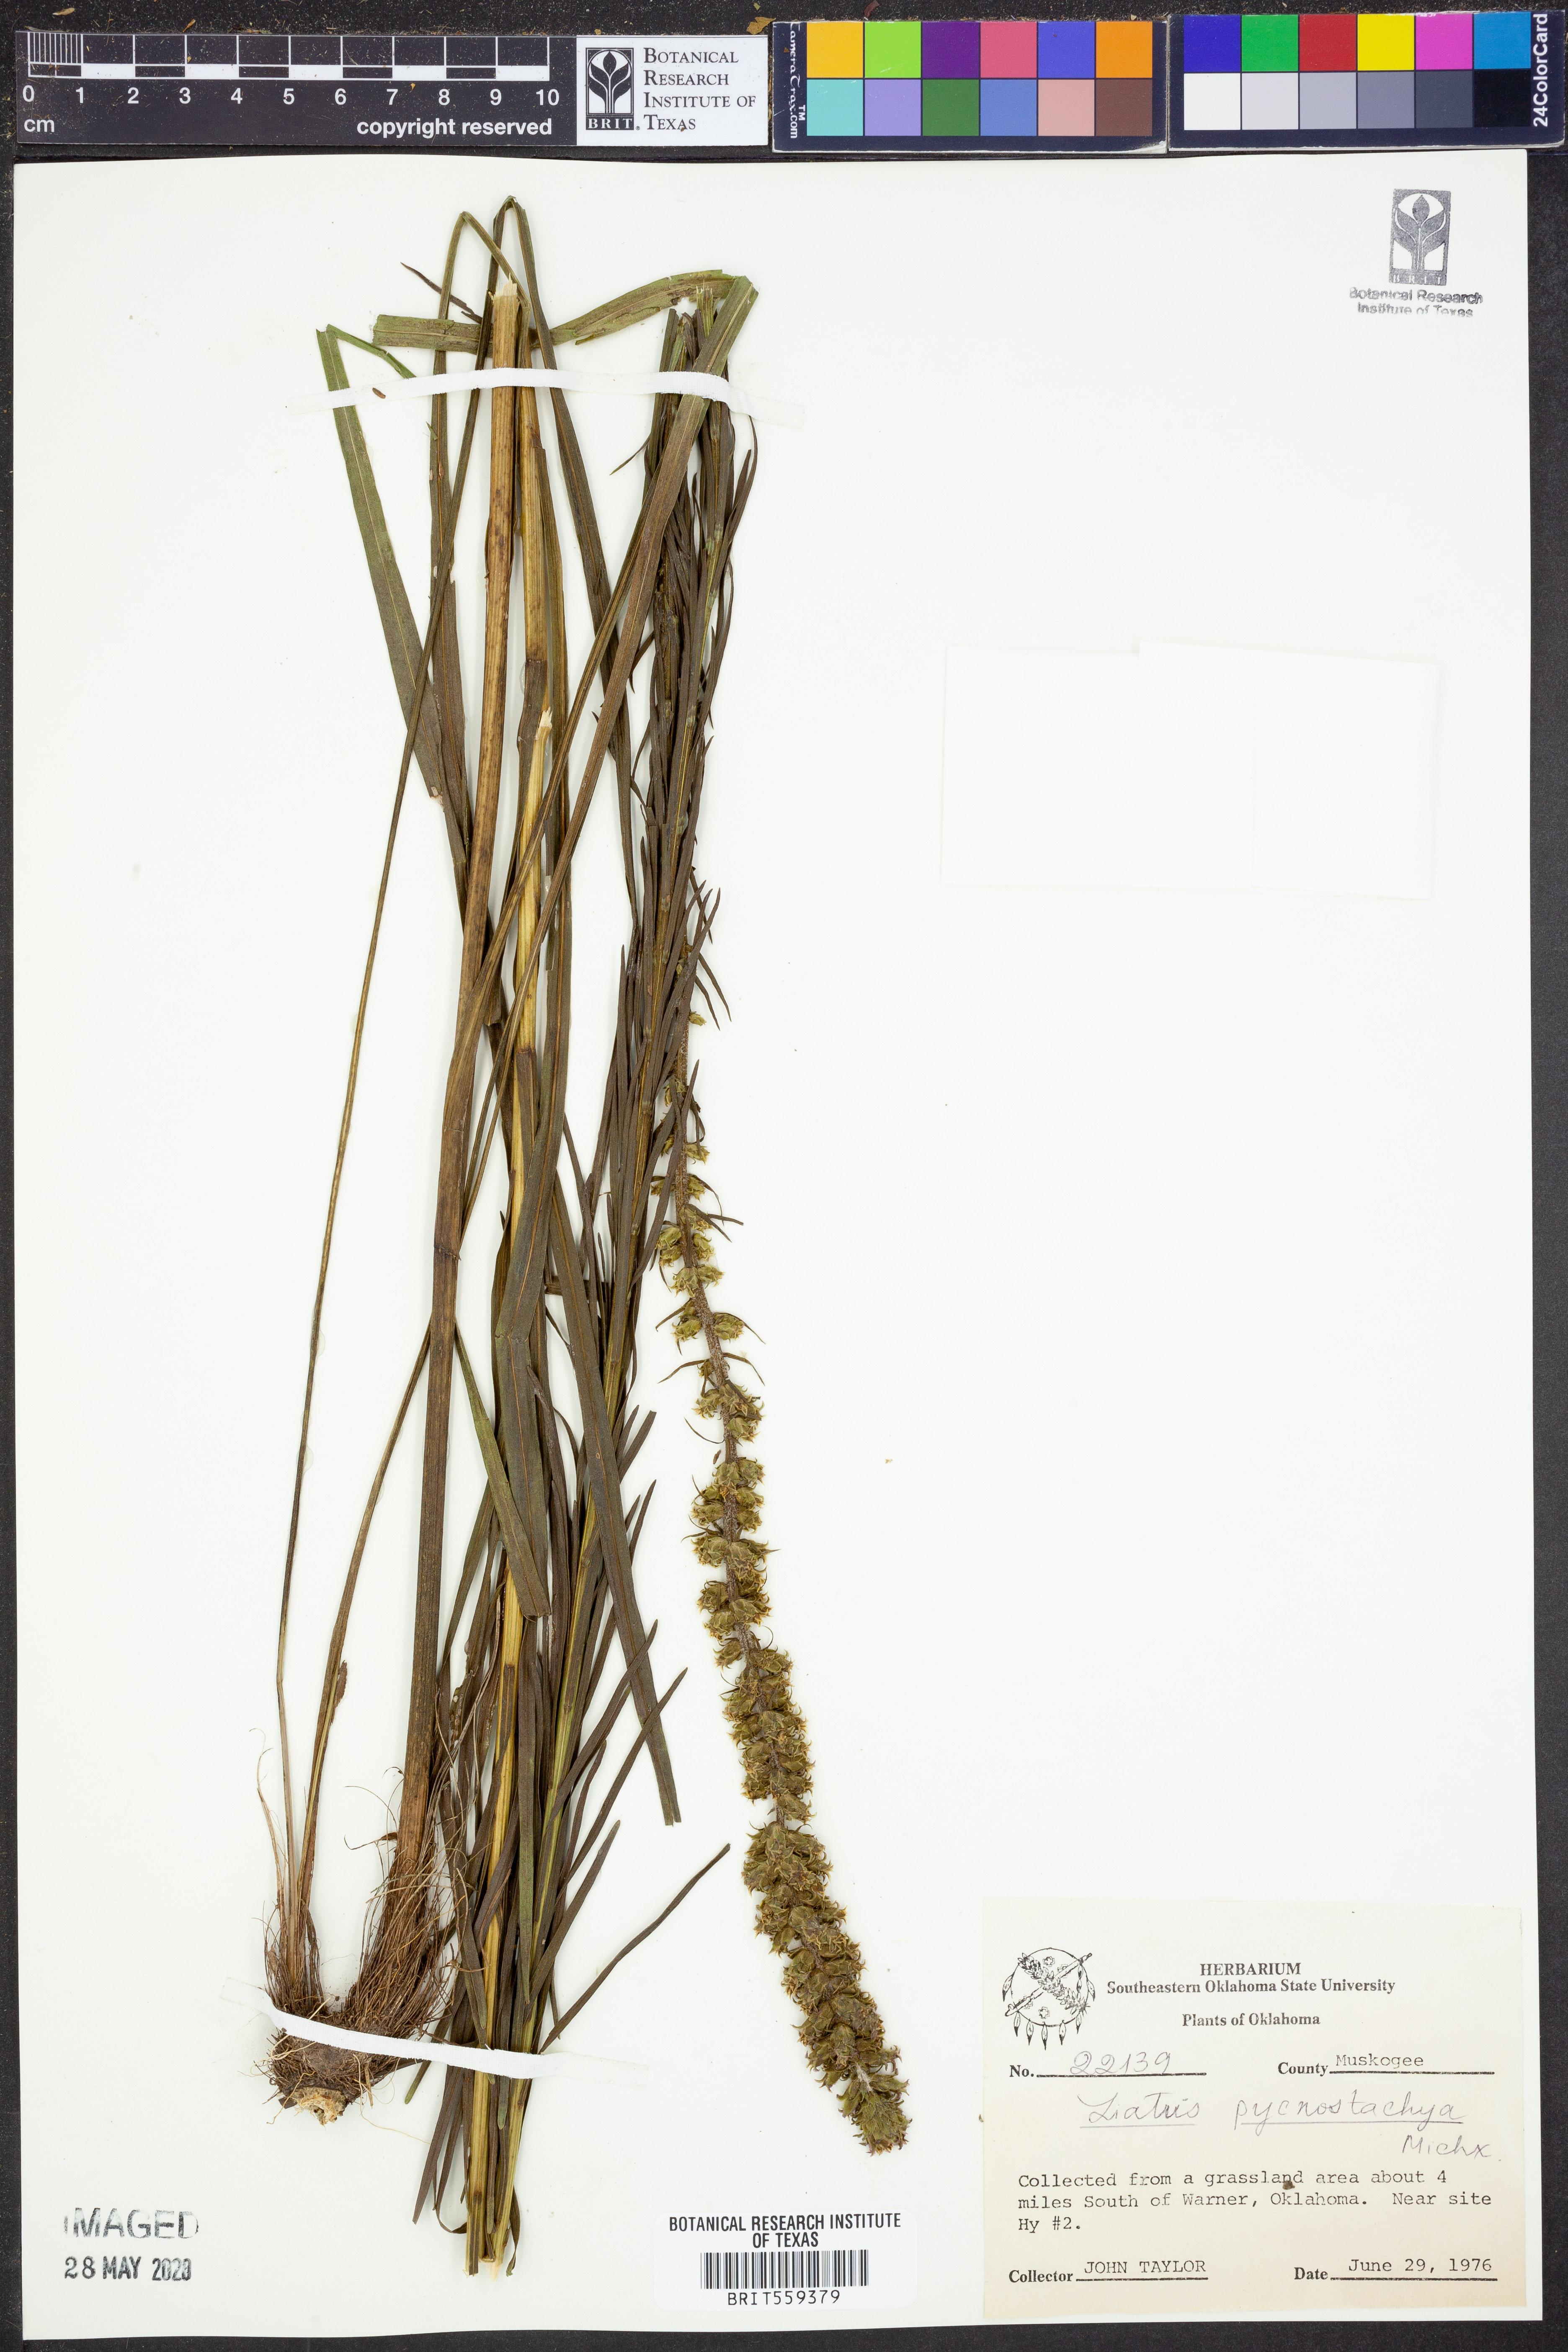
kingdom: Plantae
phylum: Tracheophyta
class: Magnoliopsida
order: Asterales
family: Asteraceae
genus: Liatris
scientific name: Liatris pycnostachya
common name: Cattail gayfeather
